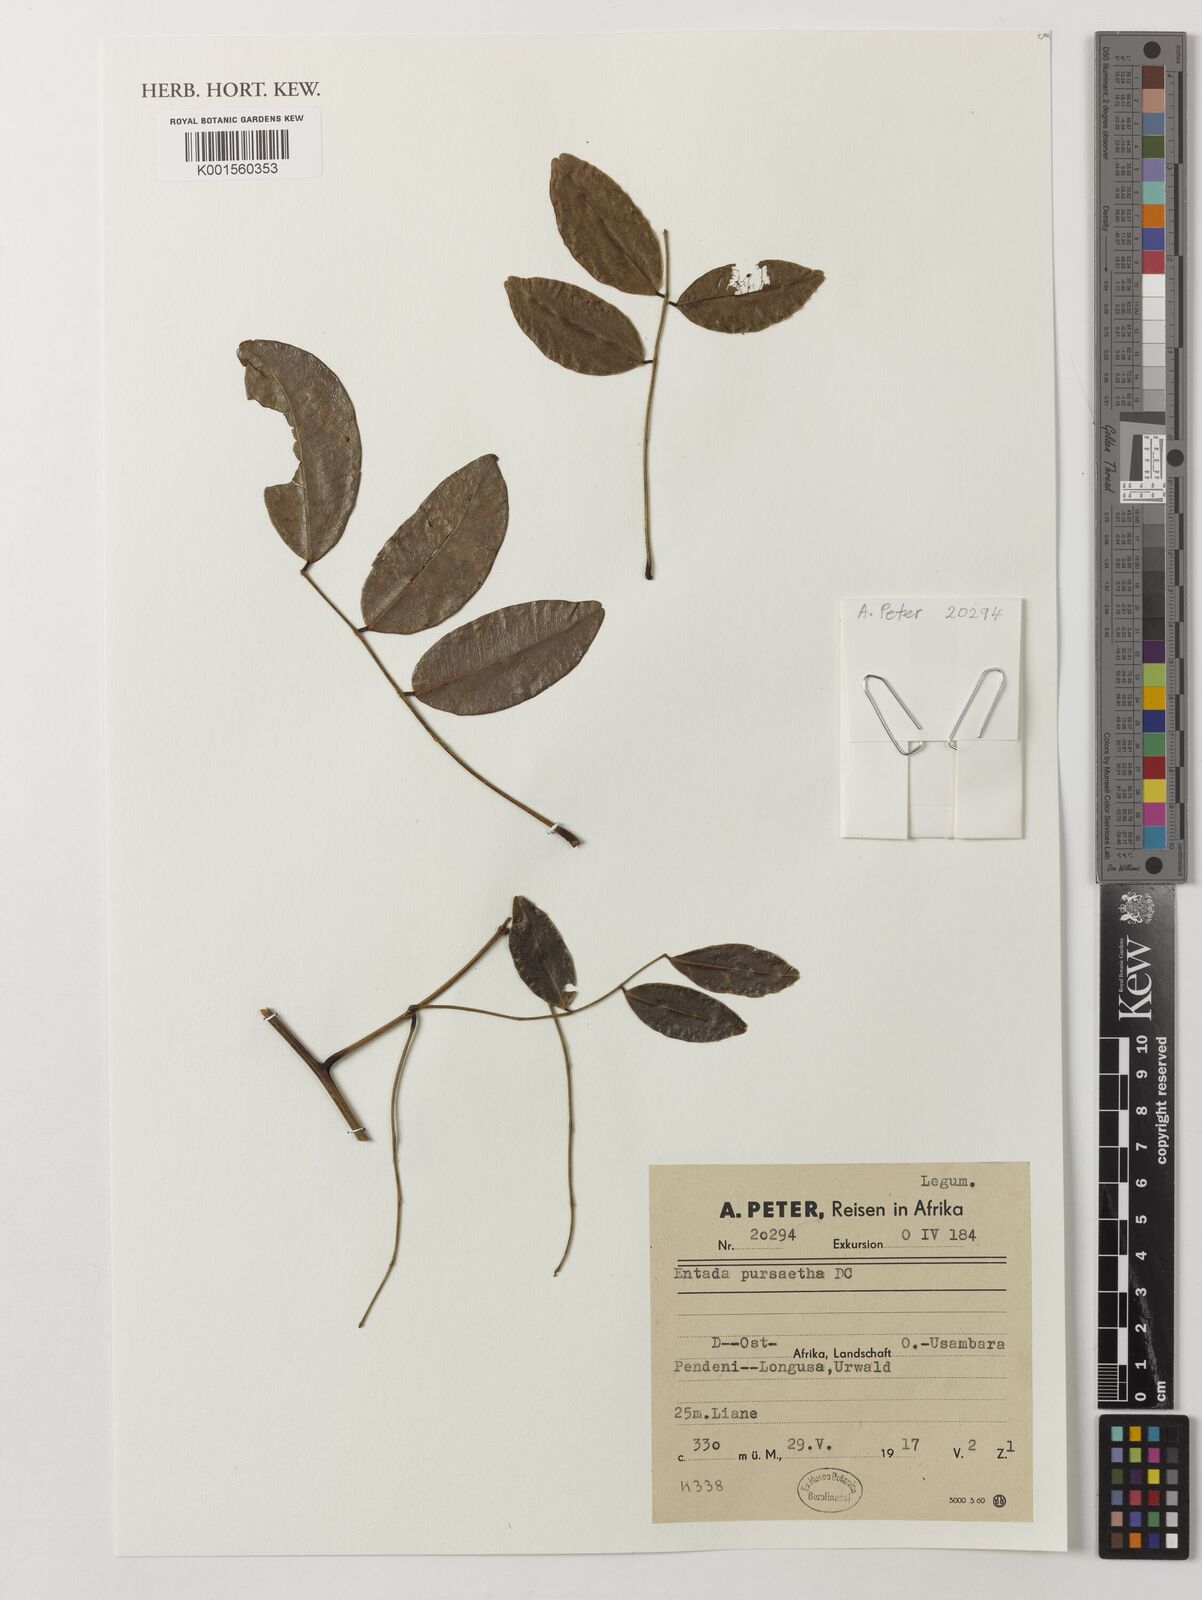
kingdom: Plantae
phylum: Tracheophyta
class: Magnoliopsida
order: Fabales
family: Fabaceae
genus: Entada
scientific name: Entada rheedei
